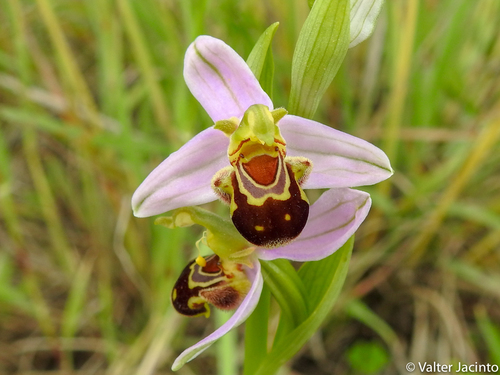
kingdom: Plantae
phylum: Tracheophyta
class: Liliopsida
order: Asparagales
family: Orchidaceae
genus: Ophrys
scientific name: Ophrys apifera
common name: Bee orchid
